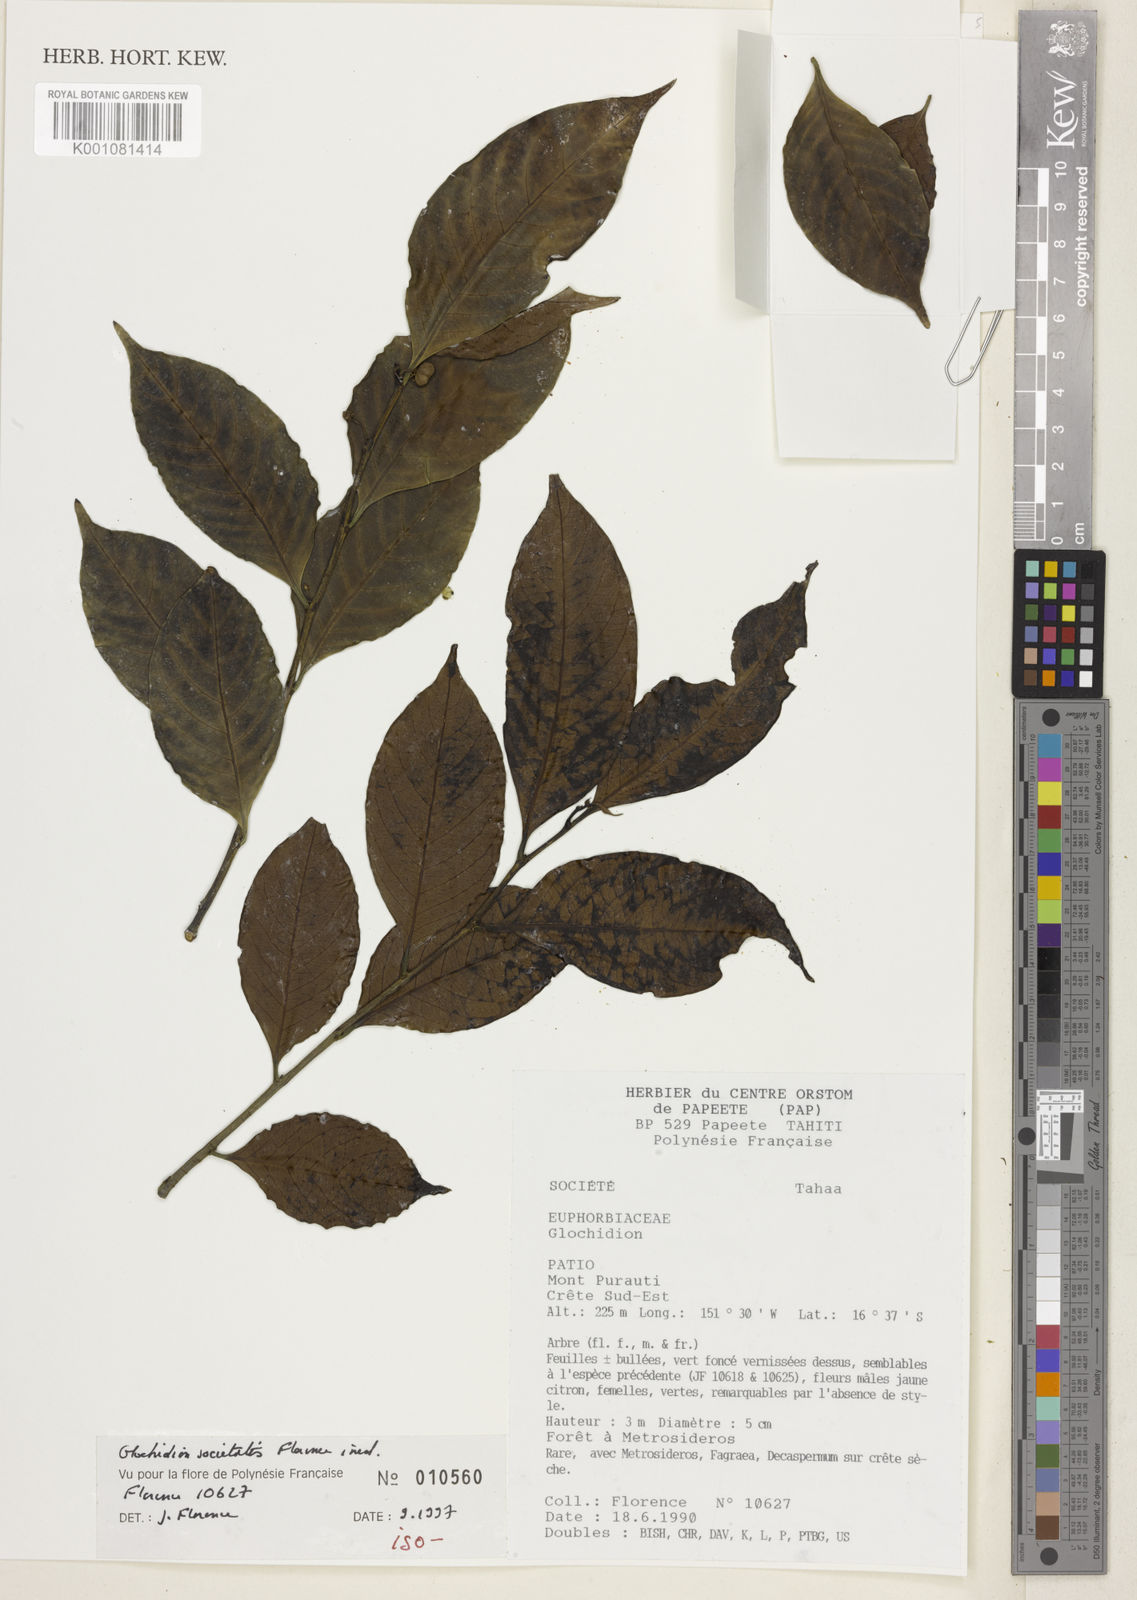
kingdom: Plantae
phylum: Tracheophyta
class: Magnoliopsida
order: Malpighiales
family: Phyllanthaceae
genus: Glochidion
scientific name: Glochidion societatis
